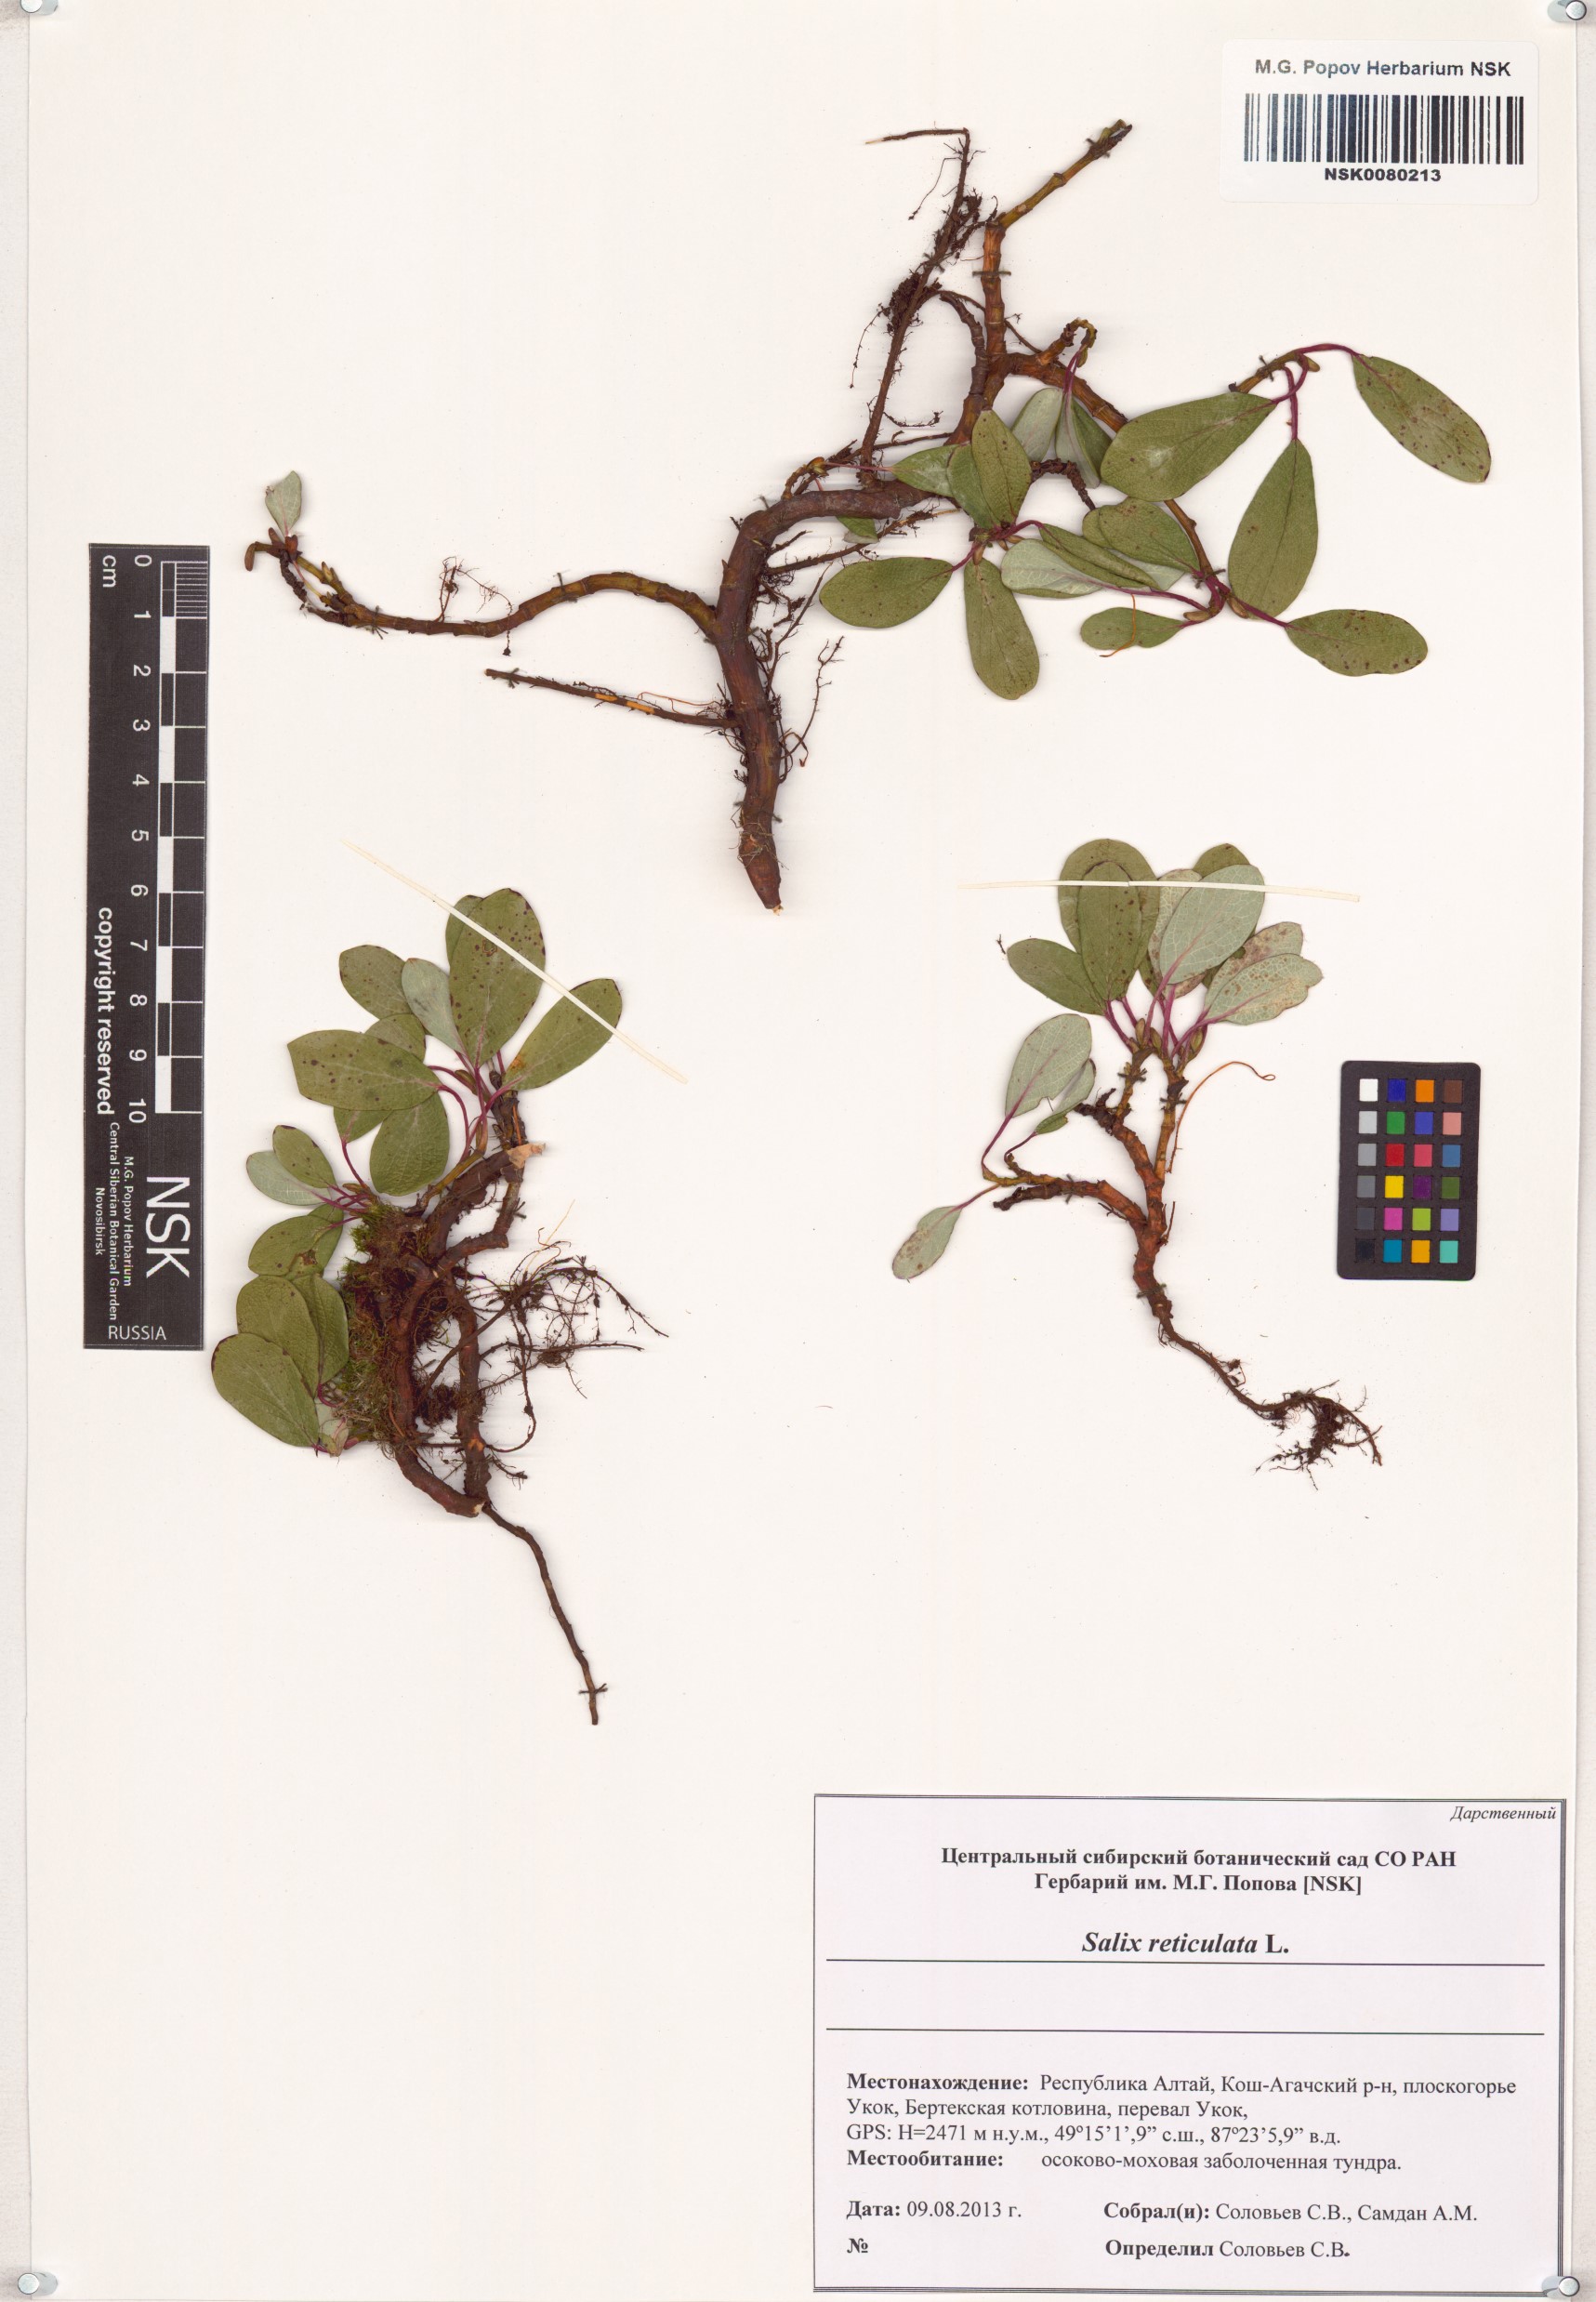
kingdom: Plantae
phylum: Tracheophyta
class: Magnoliopsida
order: Malpighiales
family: Salicaceae
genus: Salix
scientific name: Salix reticulata
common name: Net-leaved willow
